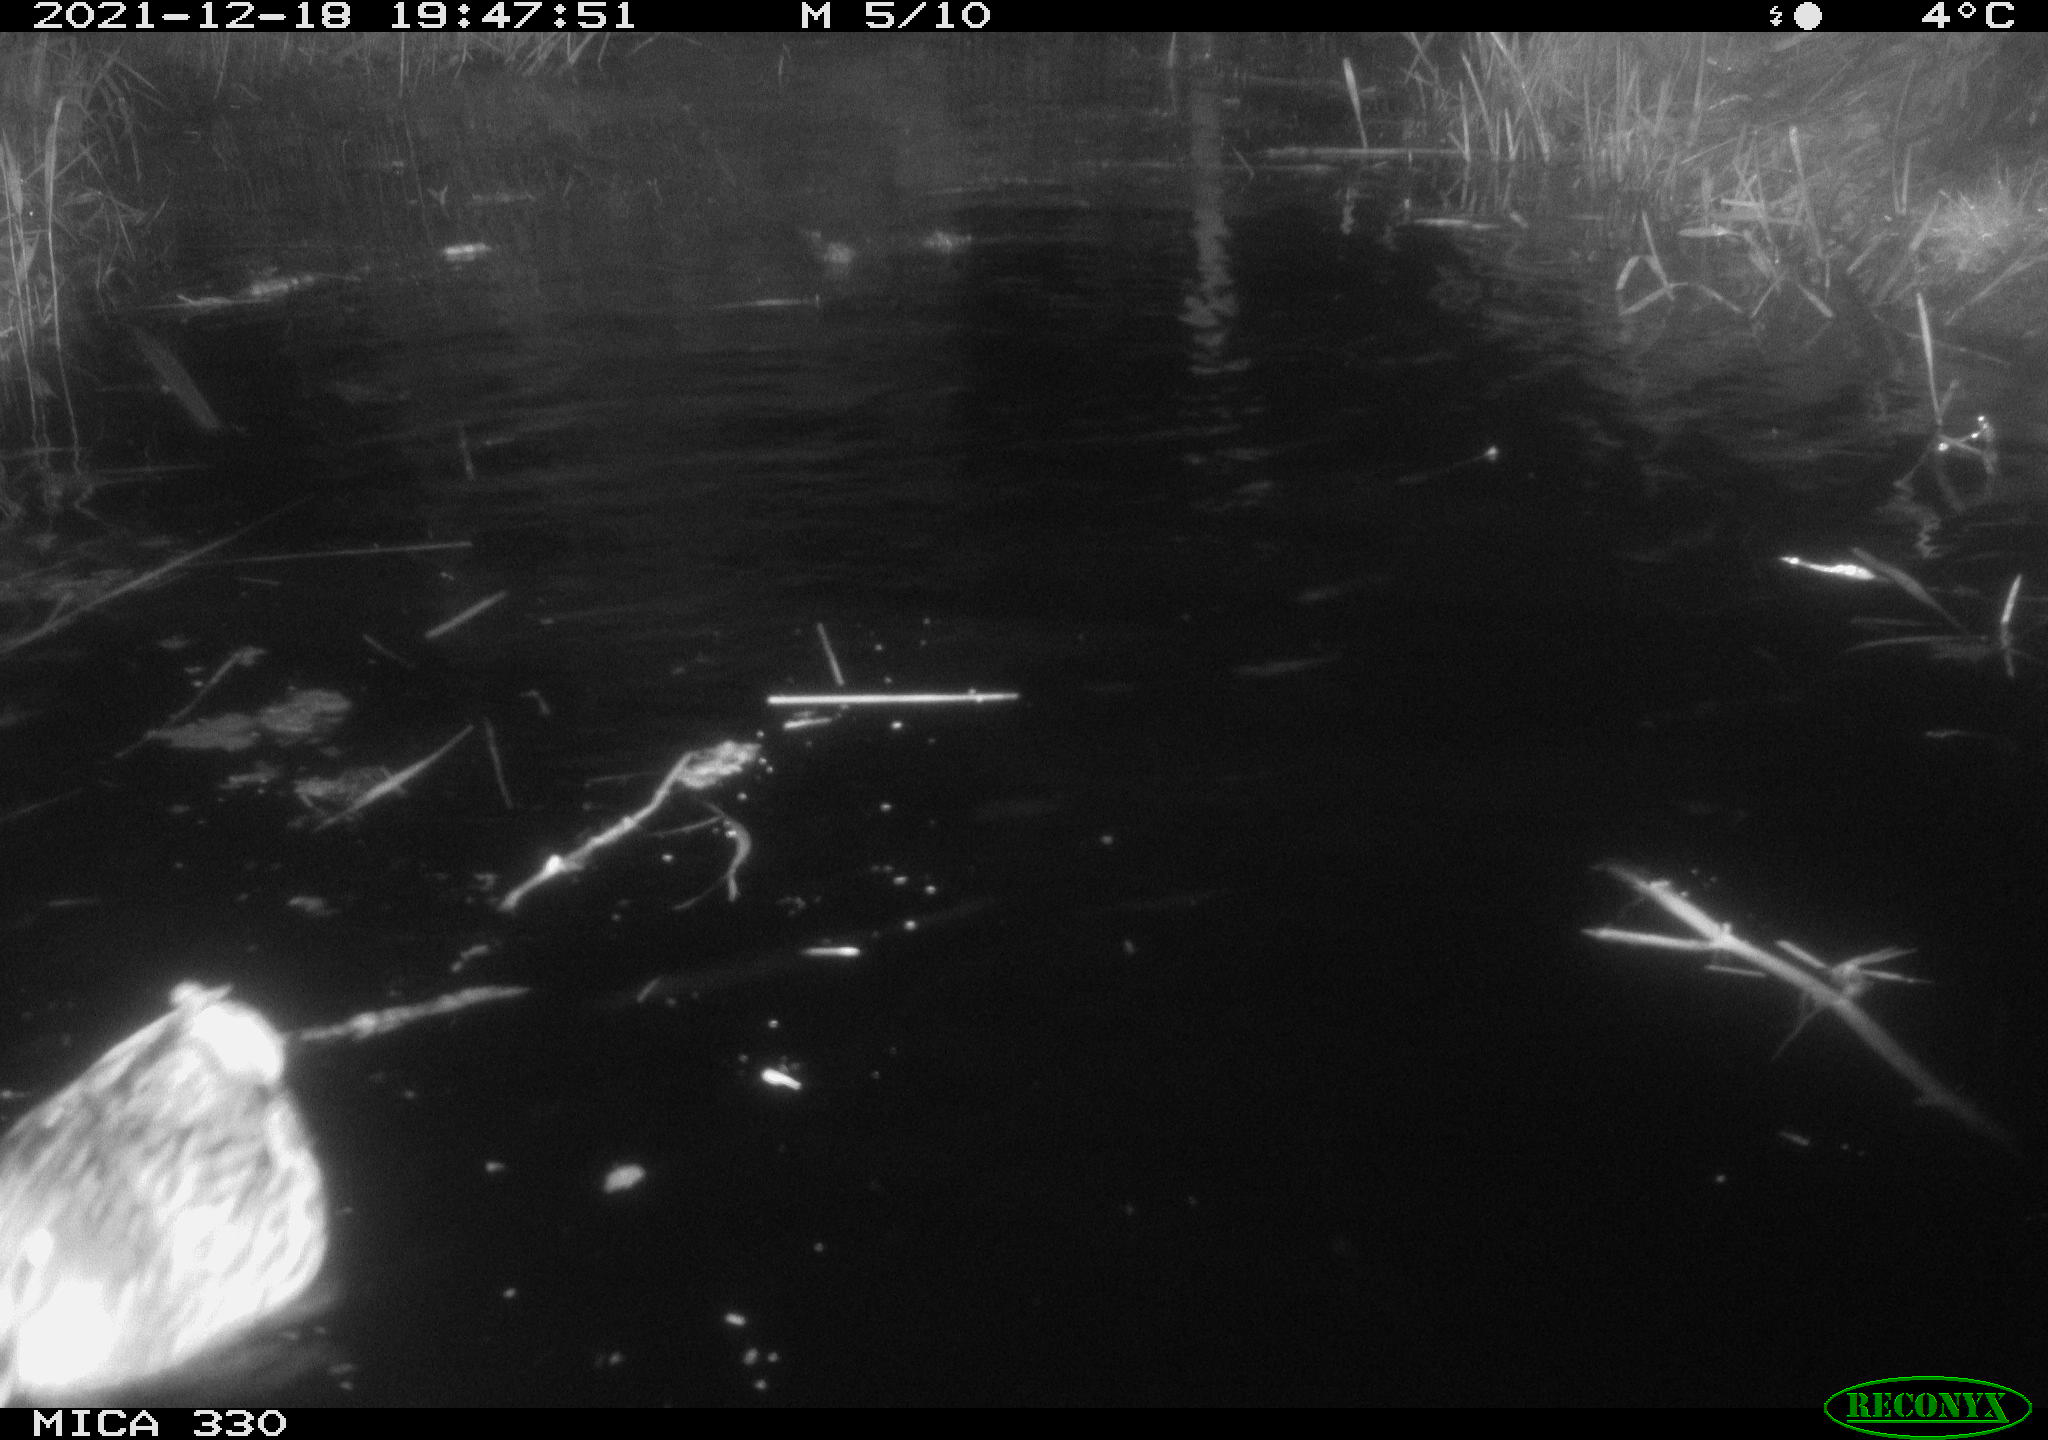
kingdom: Animalia
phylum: Chordata
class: Aves
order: Anseriformes
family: Anatidae
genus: Anas
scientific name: Anas platyrhynchos
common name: Mallard
